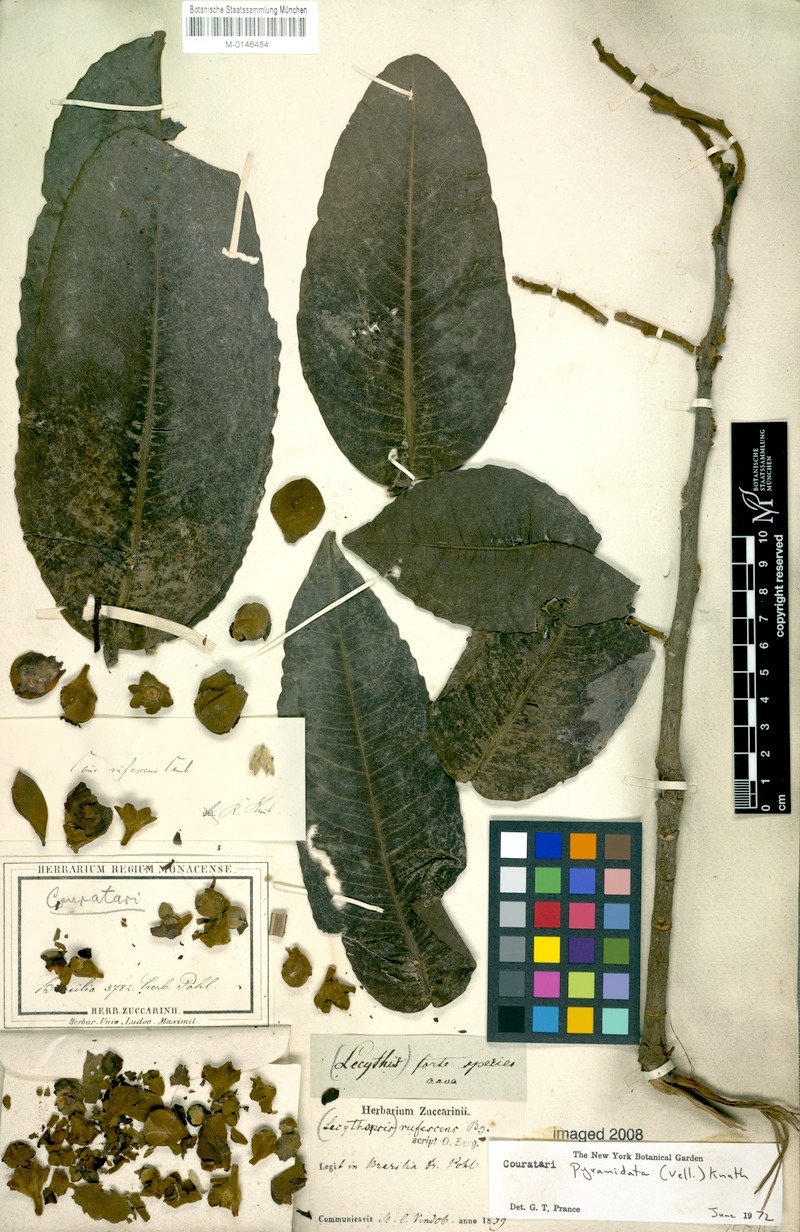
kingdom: Plantae
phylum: Tracheophyta
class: Magnoliopsida
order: Ericales
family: Lecythidaceae
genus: Couratari
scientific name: Couratari pyramidata
